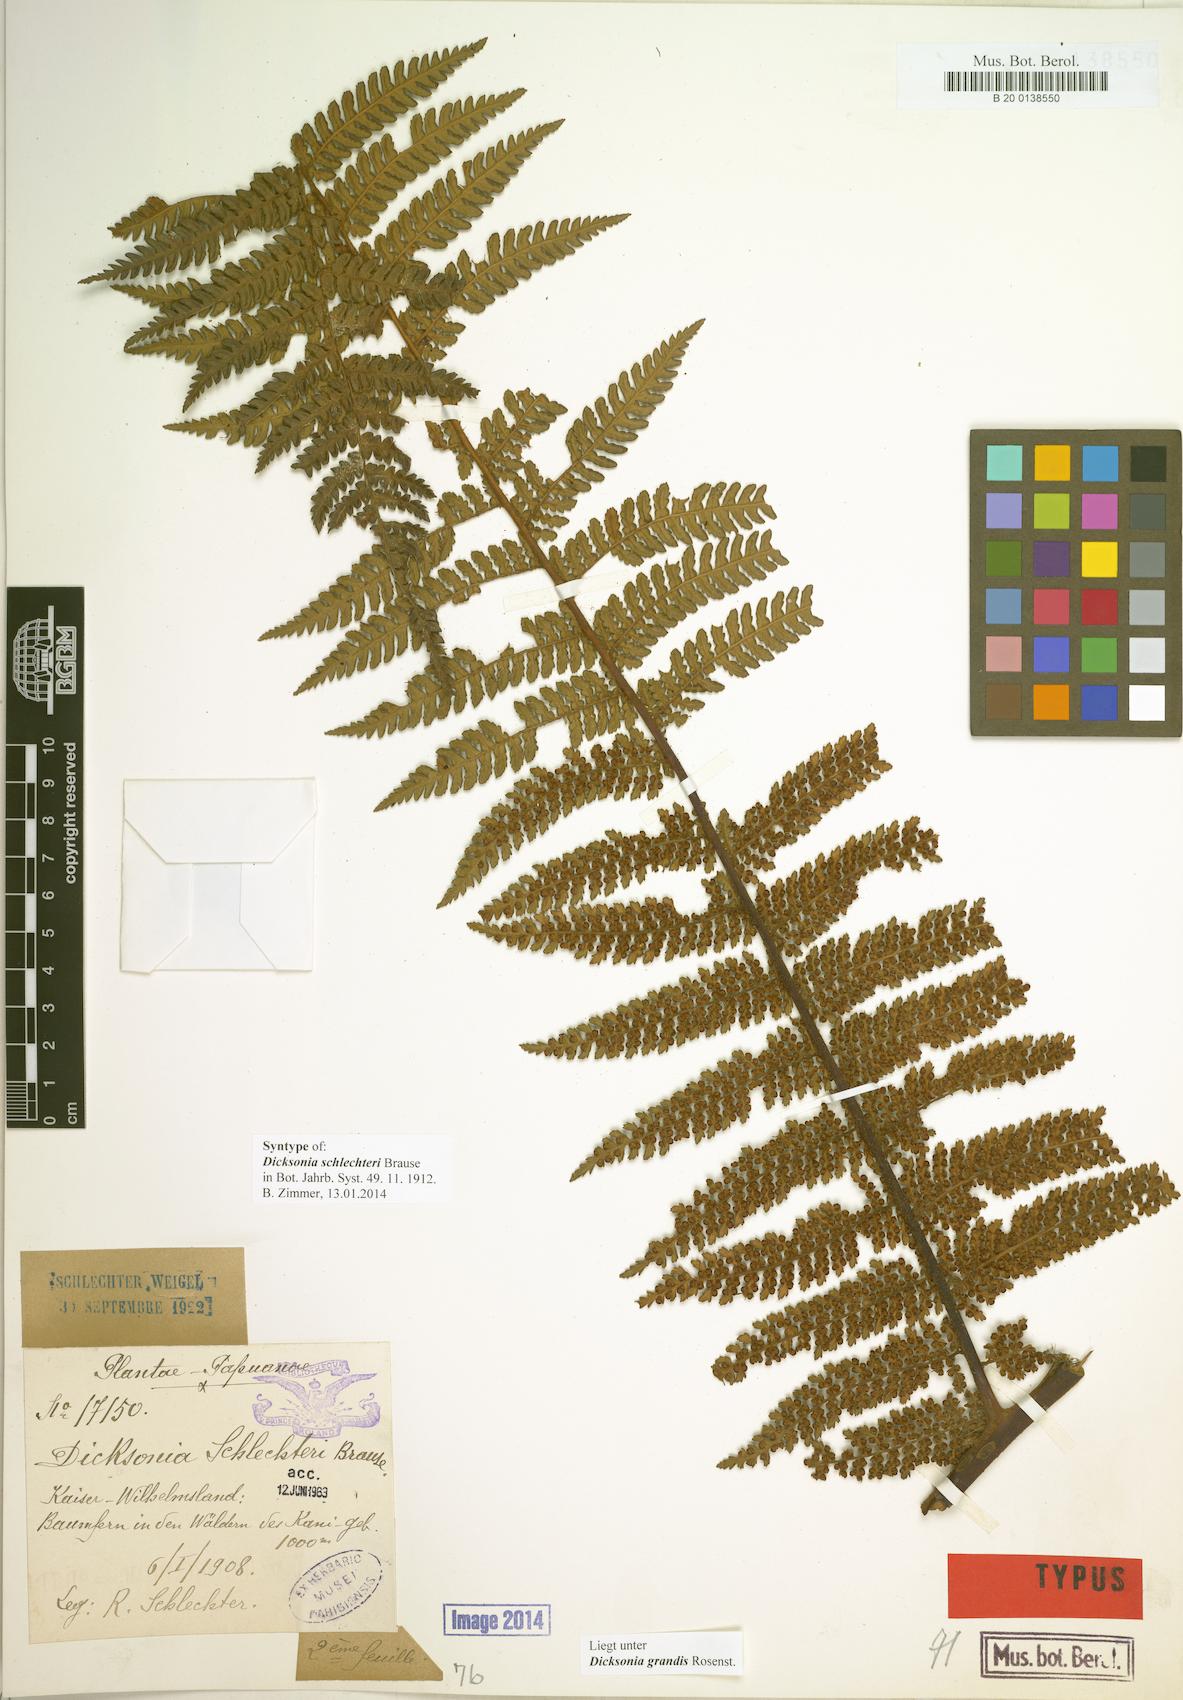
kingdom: Plantae
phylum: Tracheophyta
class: Polypodiopsida
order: Cyatheales
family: Dicksoniaceae
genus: Dicksonia
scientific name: Dicksonia schlechteri
